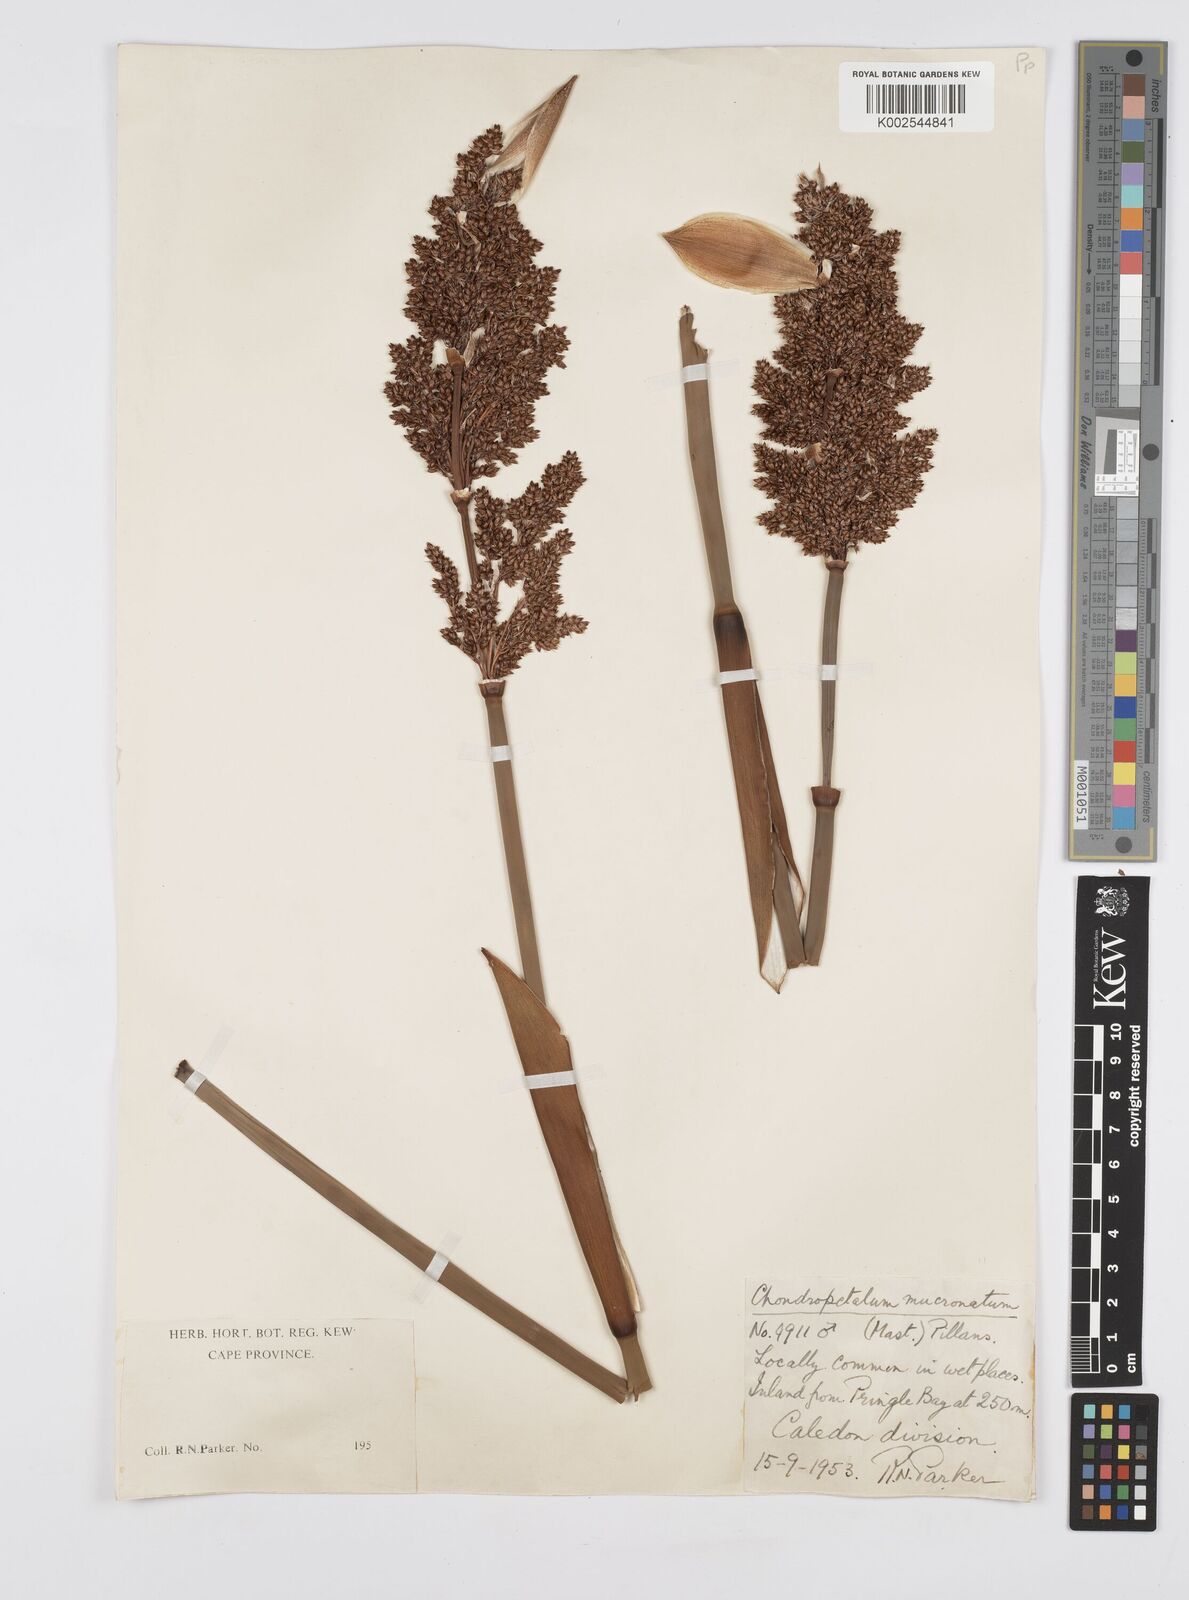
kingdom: Plantae
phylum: Tracheophyta
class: Liliopsida
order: Poales
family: Restionaceae
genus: Elegia
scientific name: Elegia mucronata
